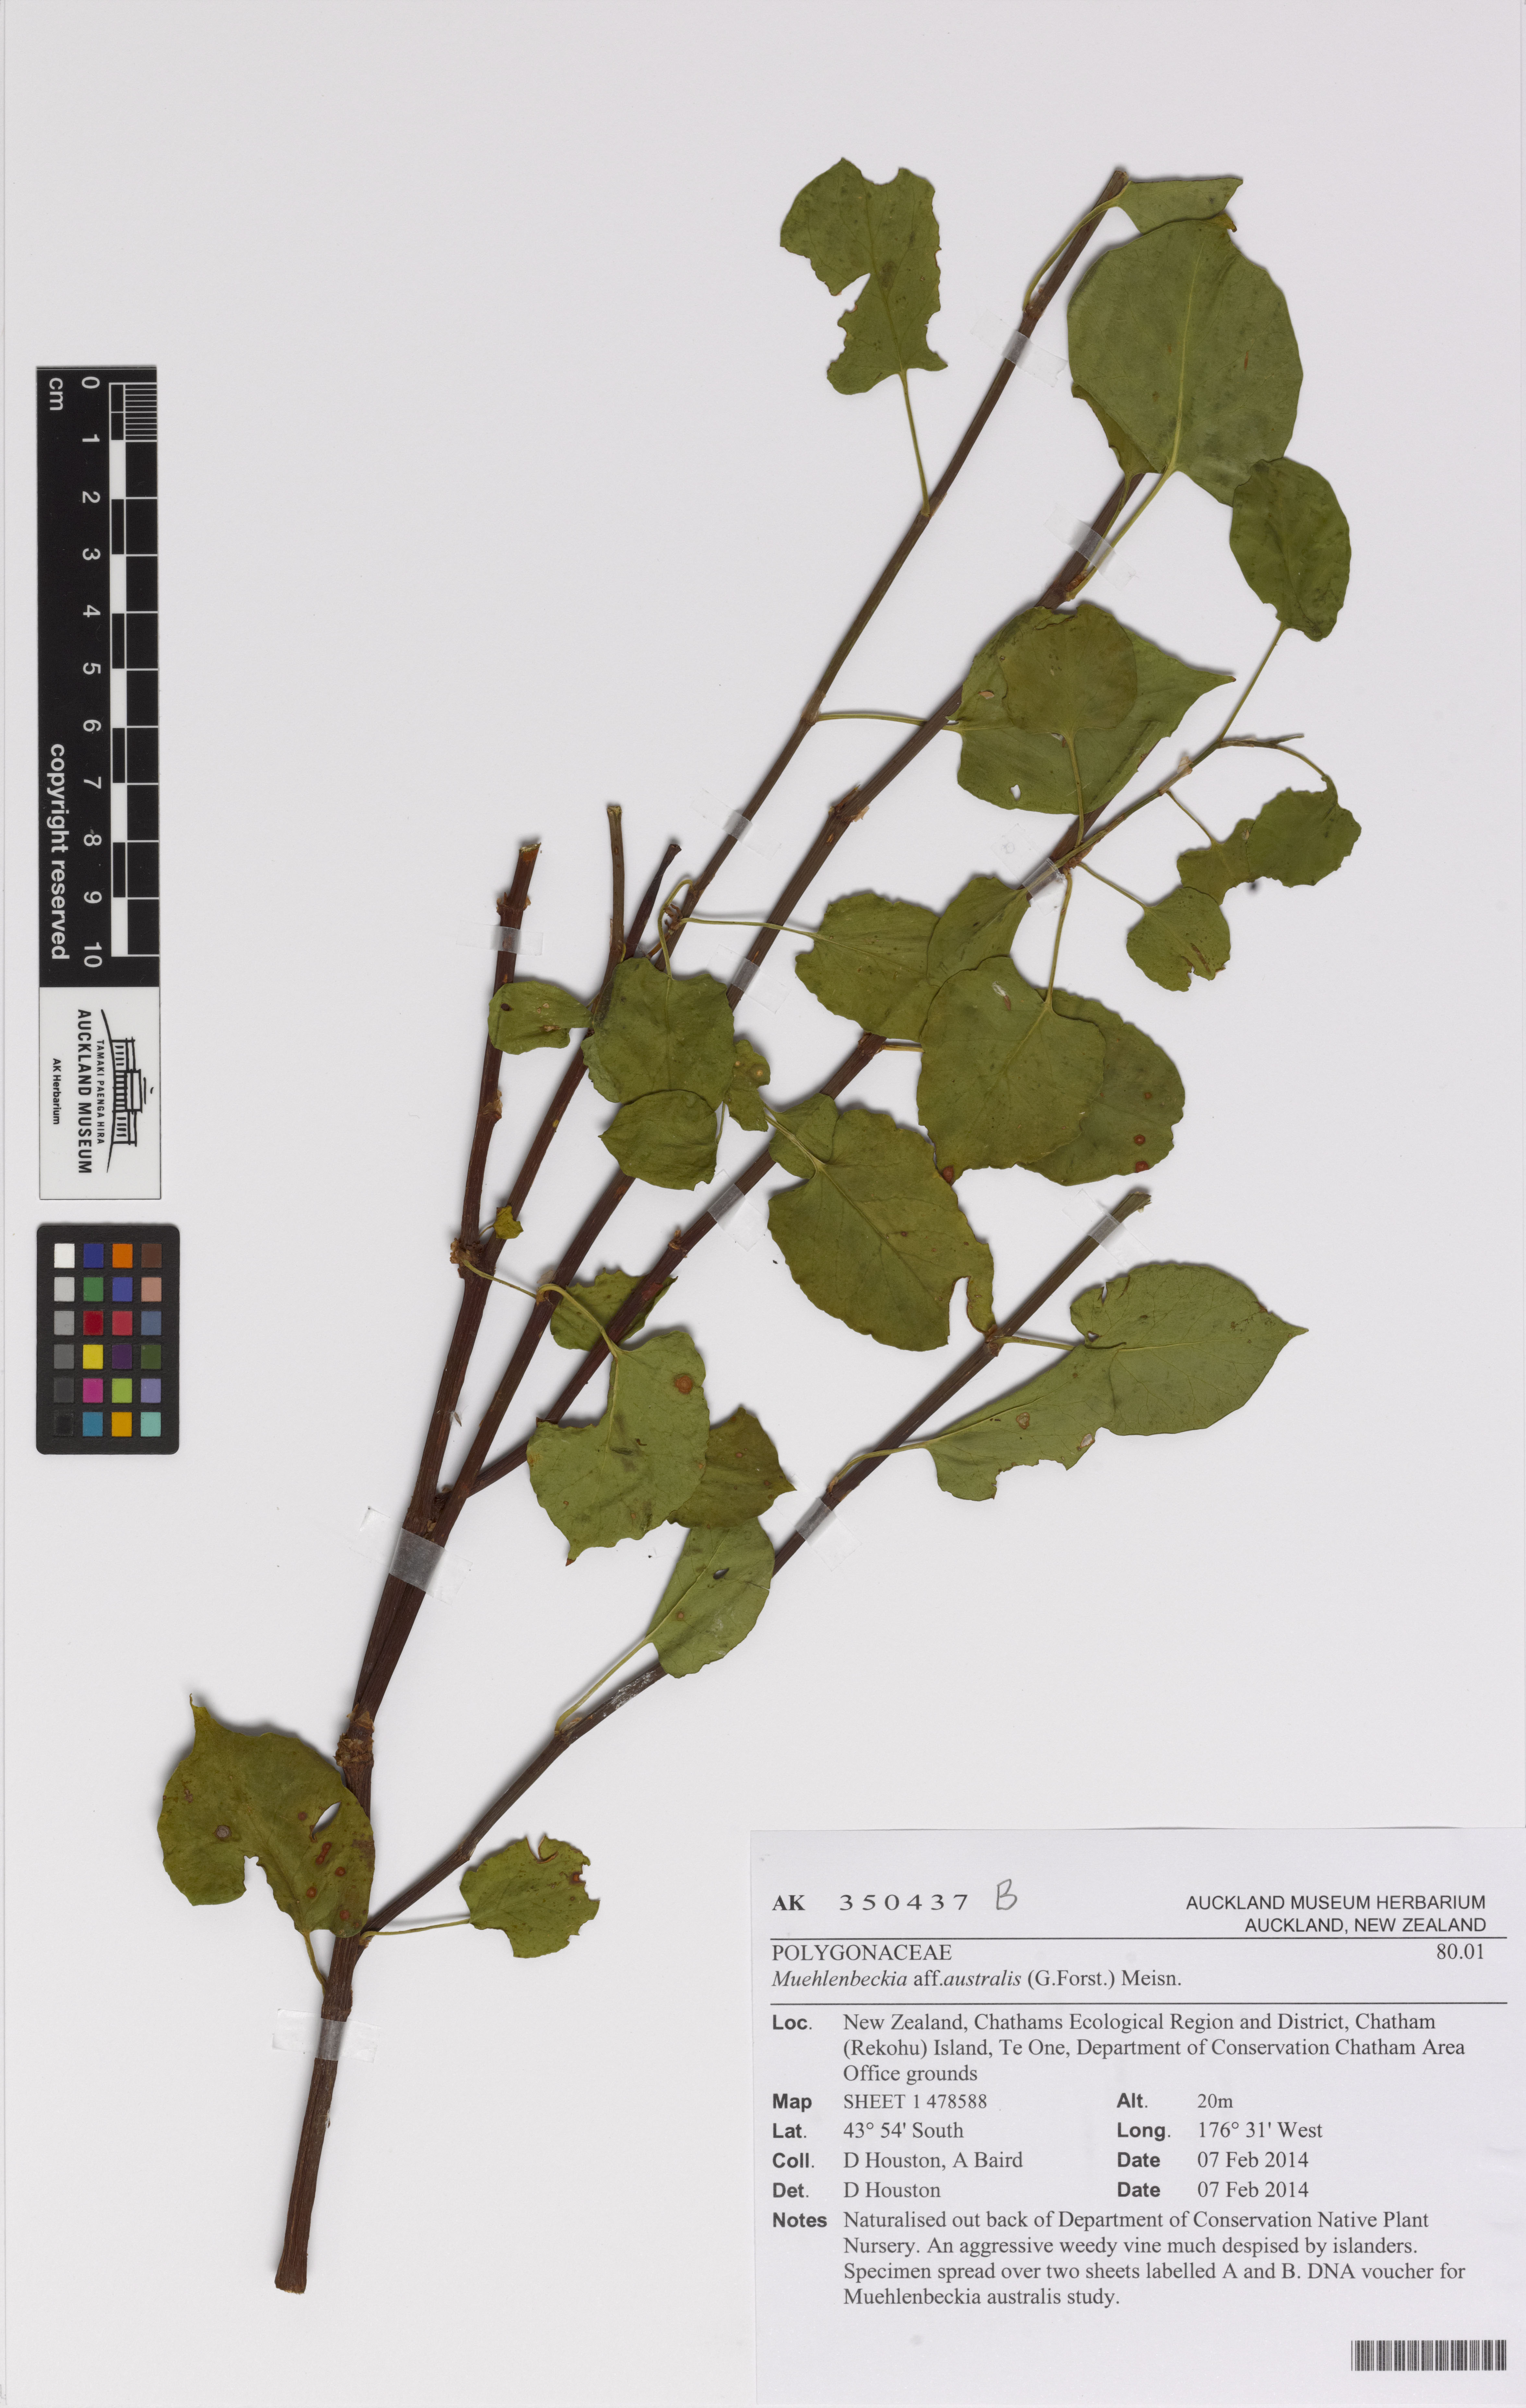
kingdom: Plantae
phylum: Tracheophyta
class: Magnoliopsida
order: Caryophyllales
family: Polygonaceae
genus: Muehlenbeckia
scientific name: Muehlenbeckia australis
